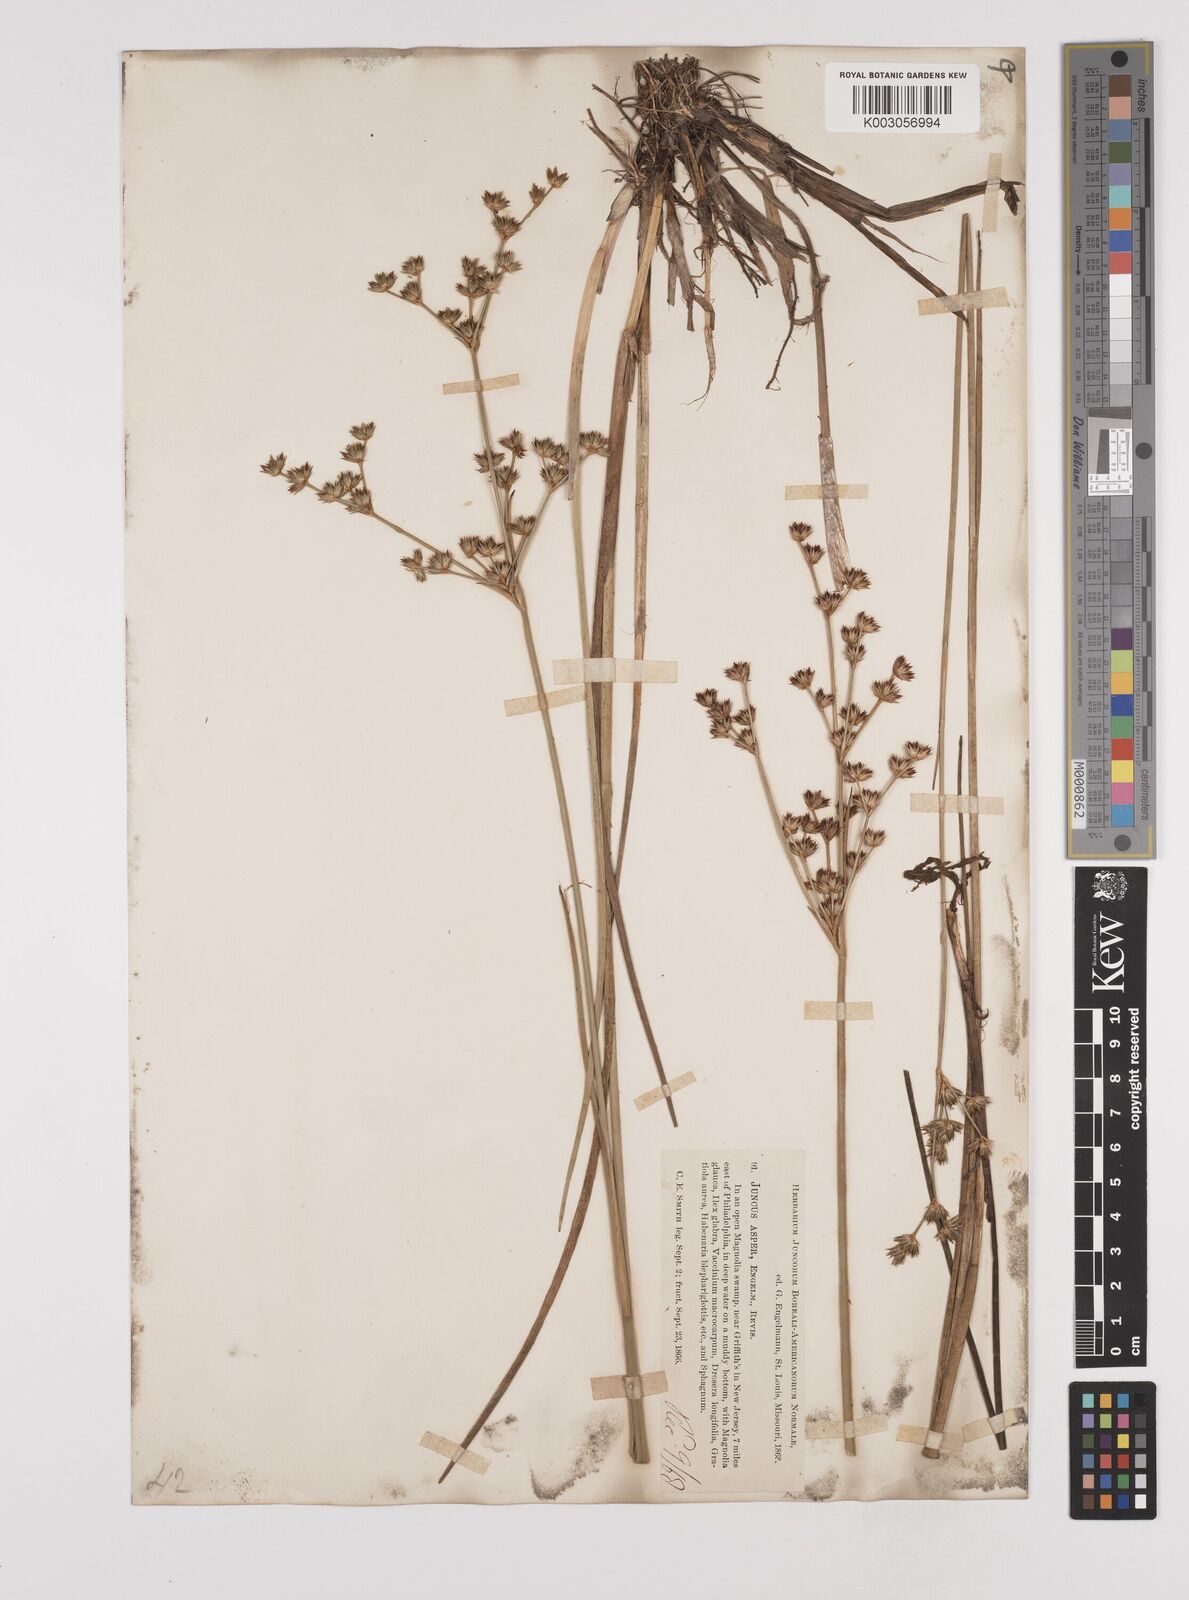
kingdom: Plantae
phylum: Tracheophyta
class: Liliopsida
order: Poales
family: Juncaceae
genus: Juncus
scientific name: Juncus caesariensis
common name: New jersey rush
